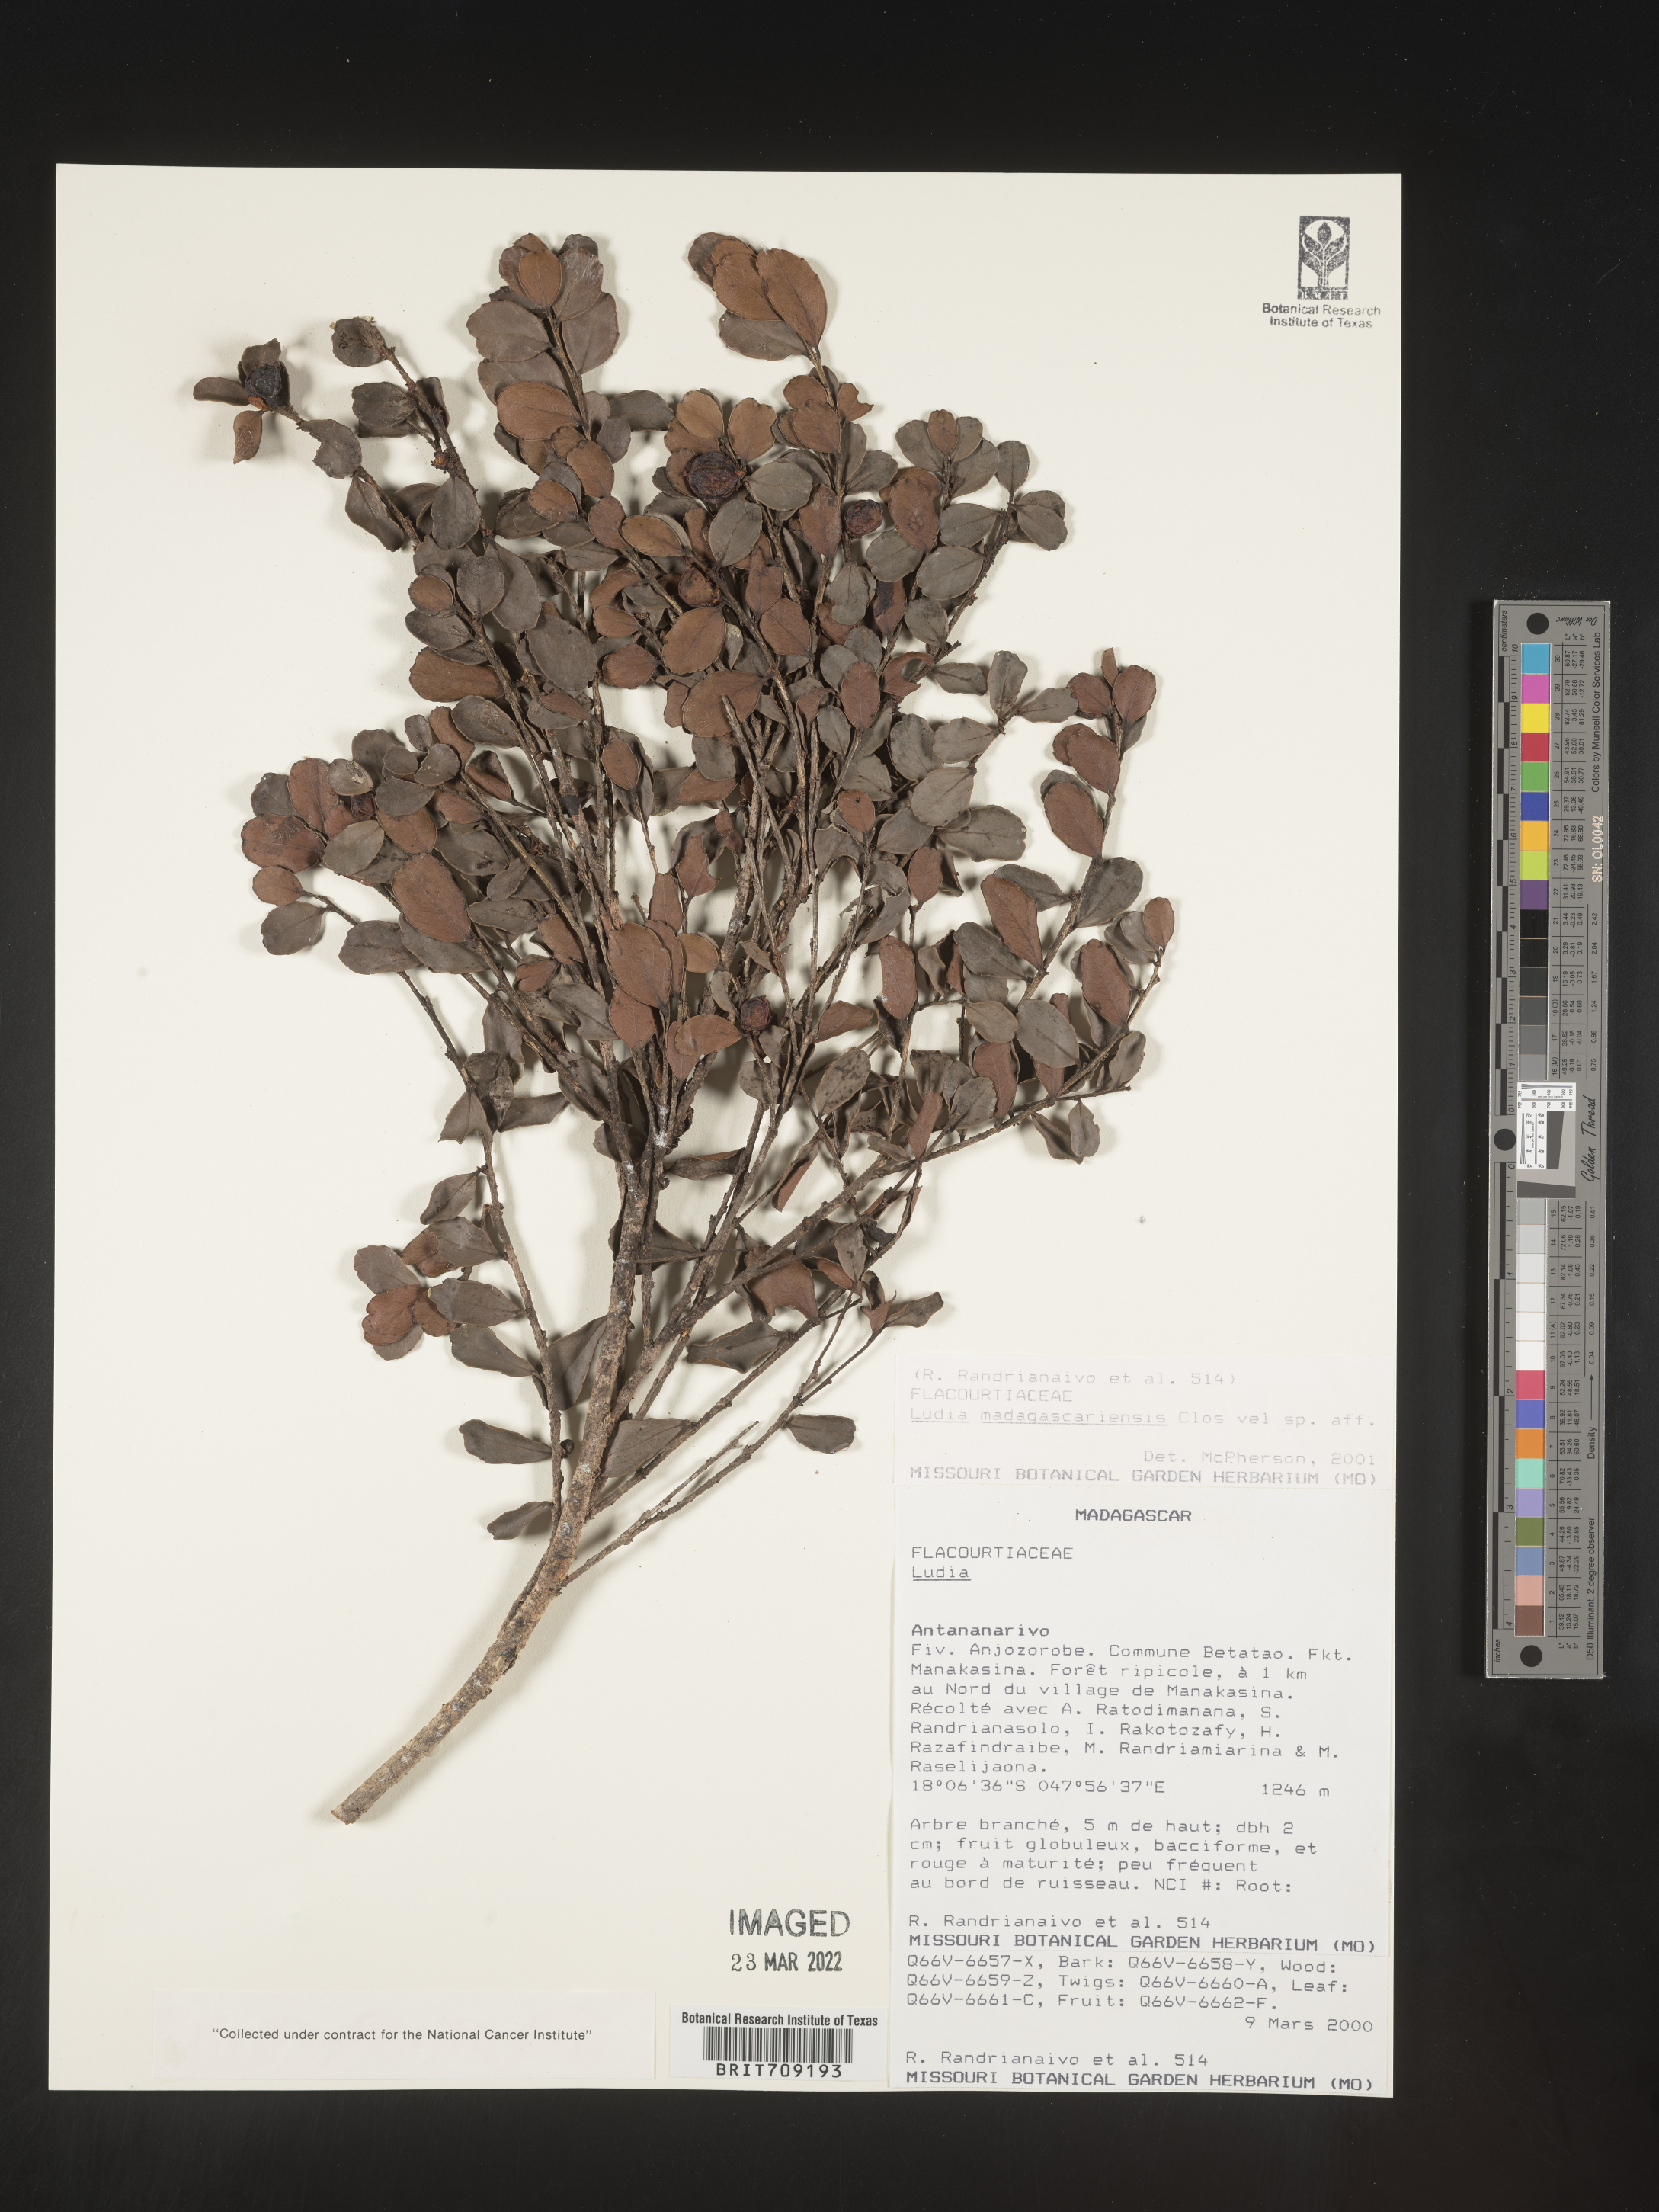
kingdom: Plantae
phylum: Tracheophyta
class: Magnoliopsida
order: Malpighiales
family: Salicaceae
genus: Ludia
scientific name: Ludia
